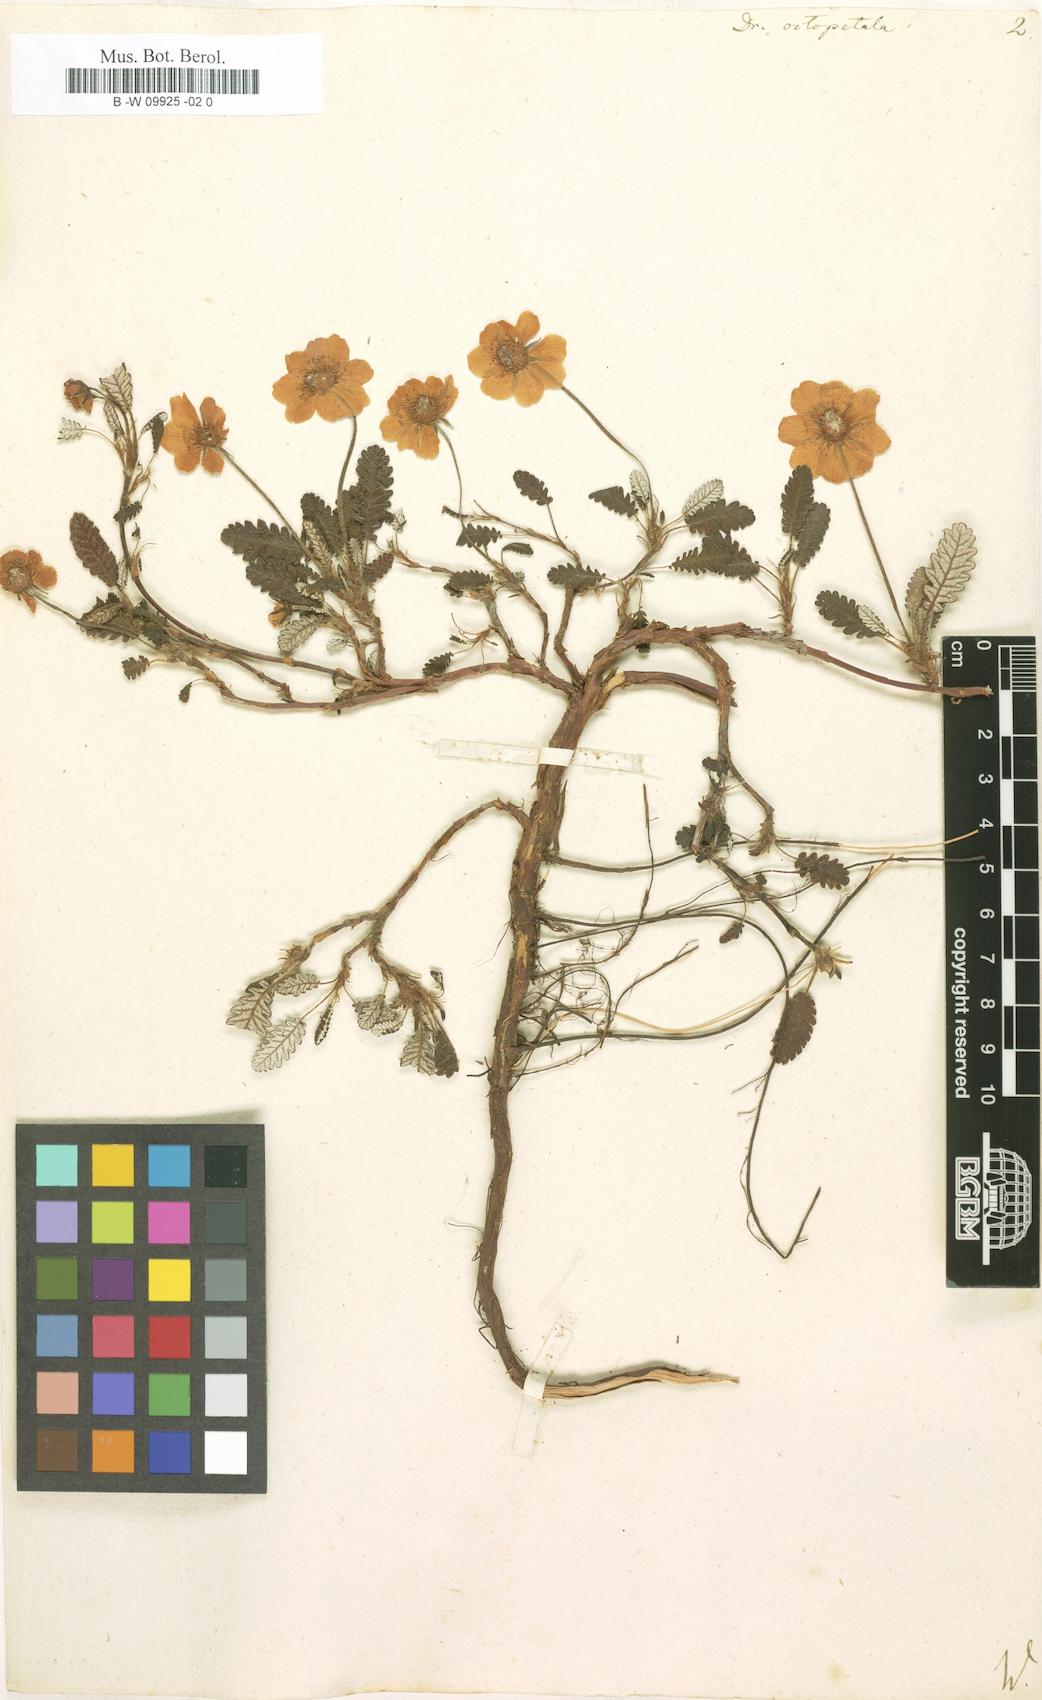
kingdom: Plantae
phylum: Tracheophyta
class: Magnoliopsida
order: Rosales
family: Rosaceae
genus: Dryas
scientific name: Dryas octopetala
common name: Eight-petal mountain-avens
